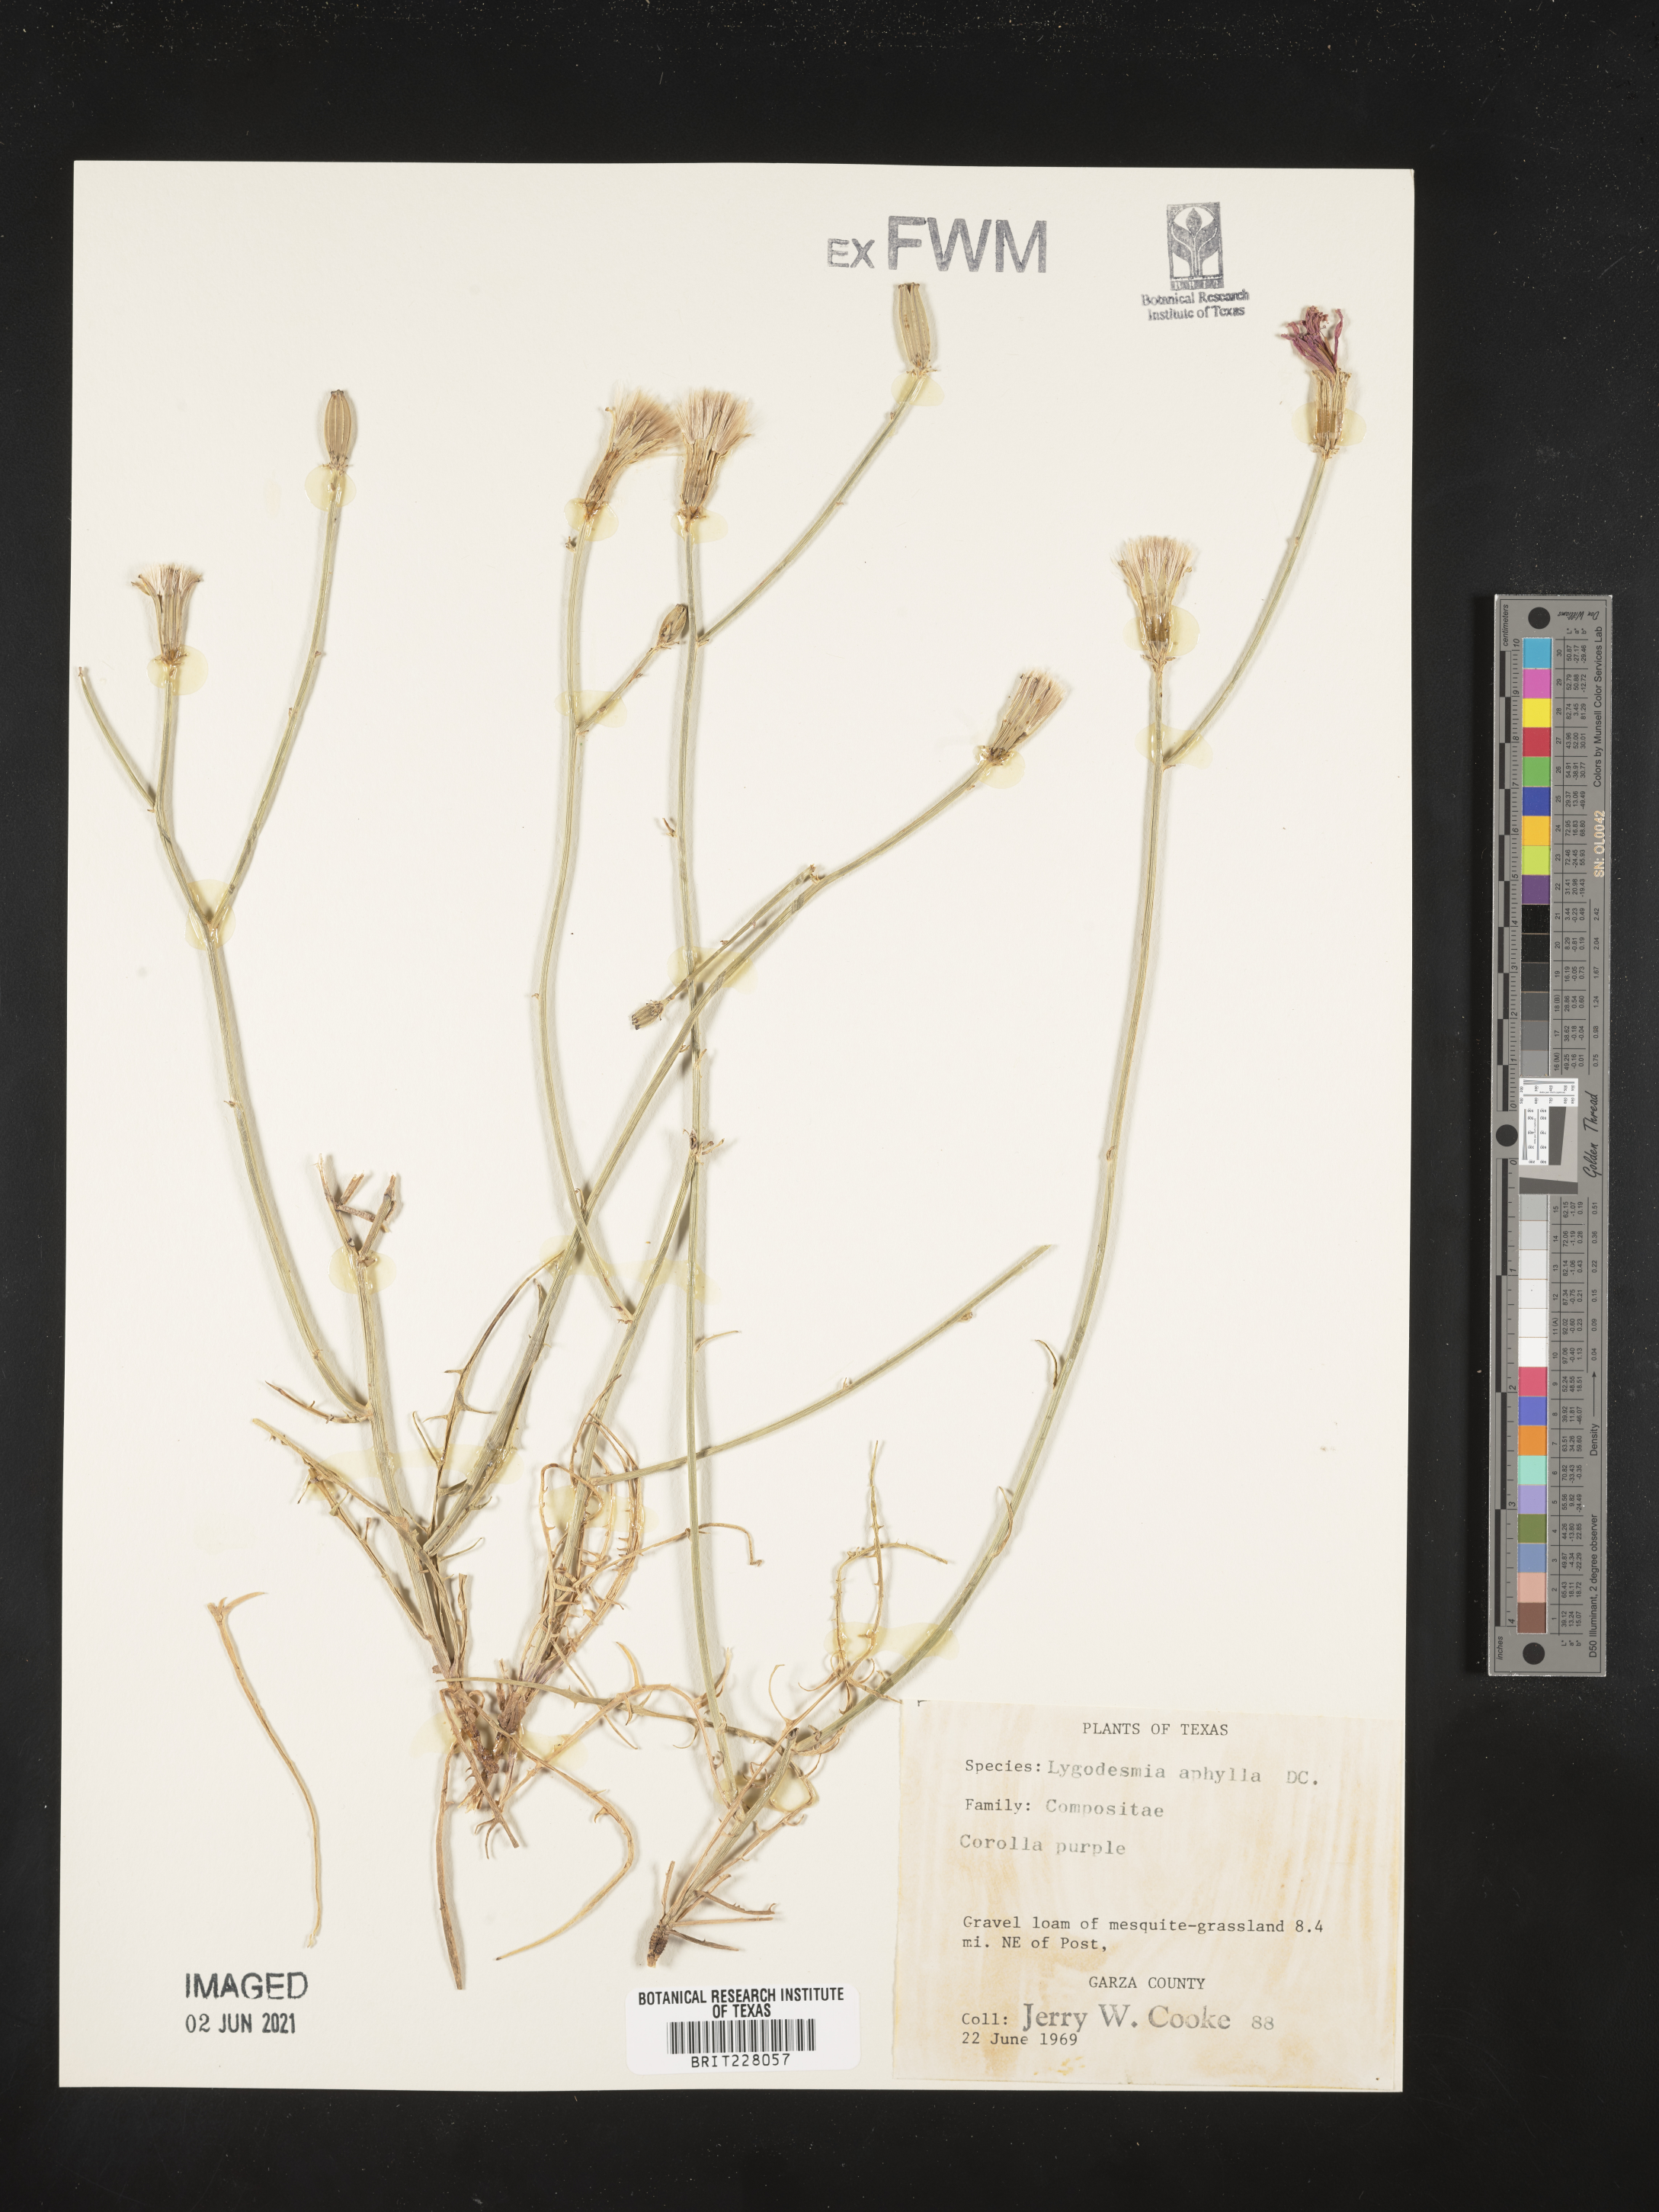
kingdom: Plantae
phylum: Tracheophyta
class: Magnoliopsida
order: Asterales
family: Asteraceae
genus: Lygodesmia
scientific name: Lygodesmia aphylla
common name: Rose-rush
